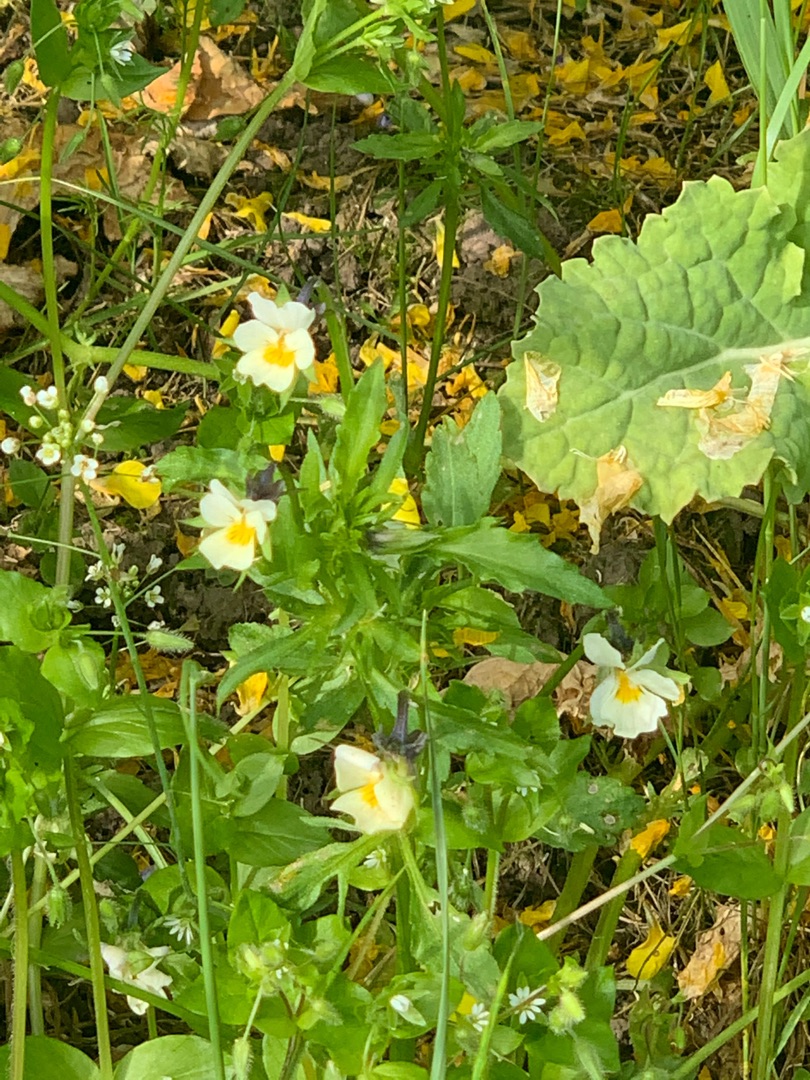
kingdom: Plantae
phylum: Tracheophyta
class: Magnoliopsida
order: Malpighiales
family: Violaceae
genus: Viola
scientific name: Viola arvensis
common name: Ager-stedmoderblomst
